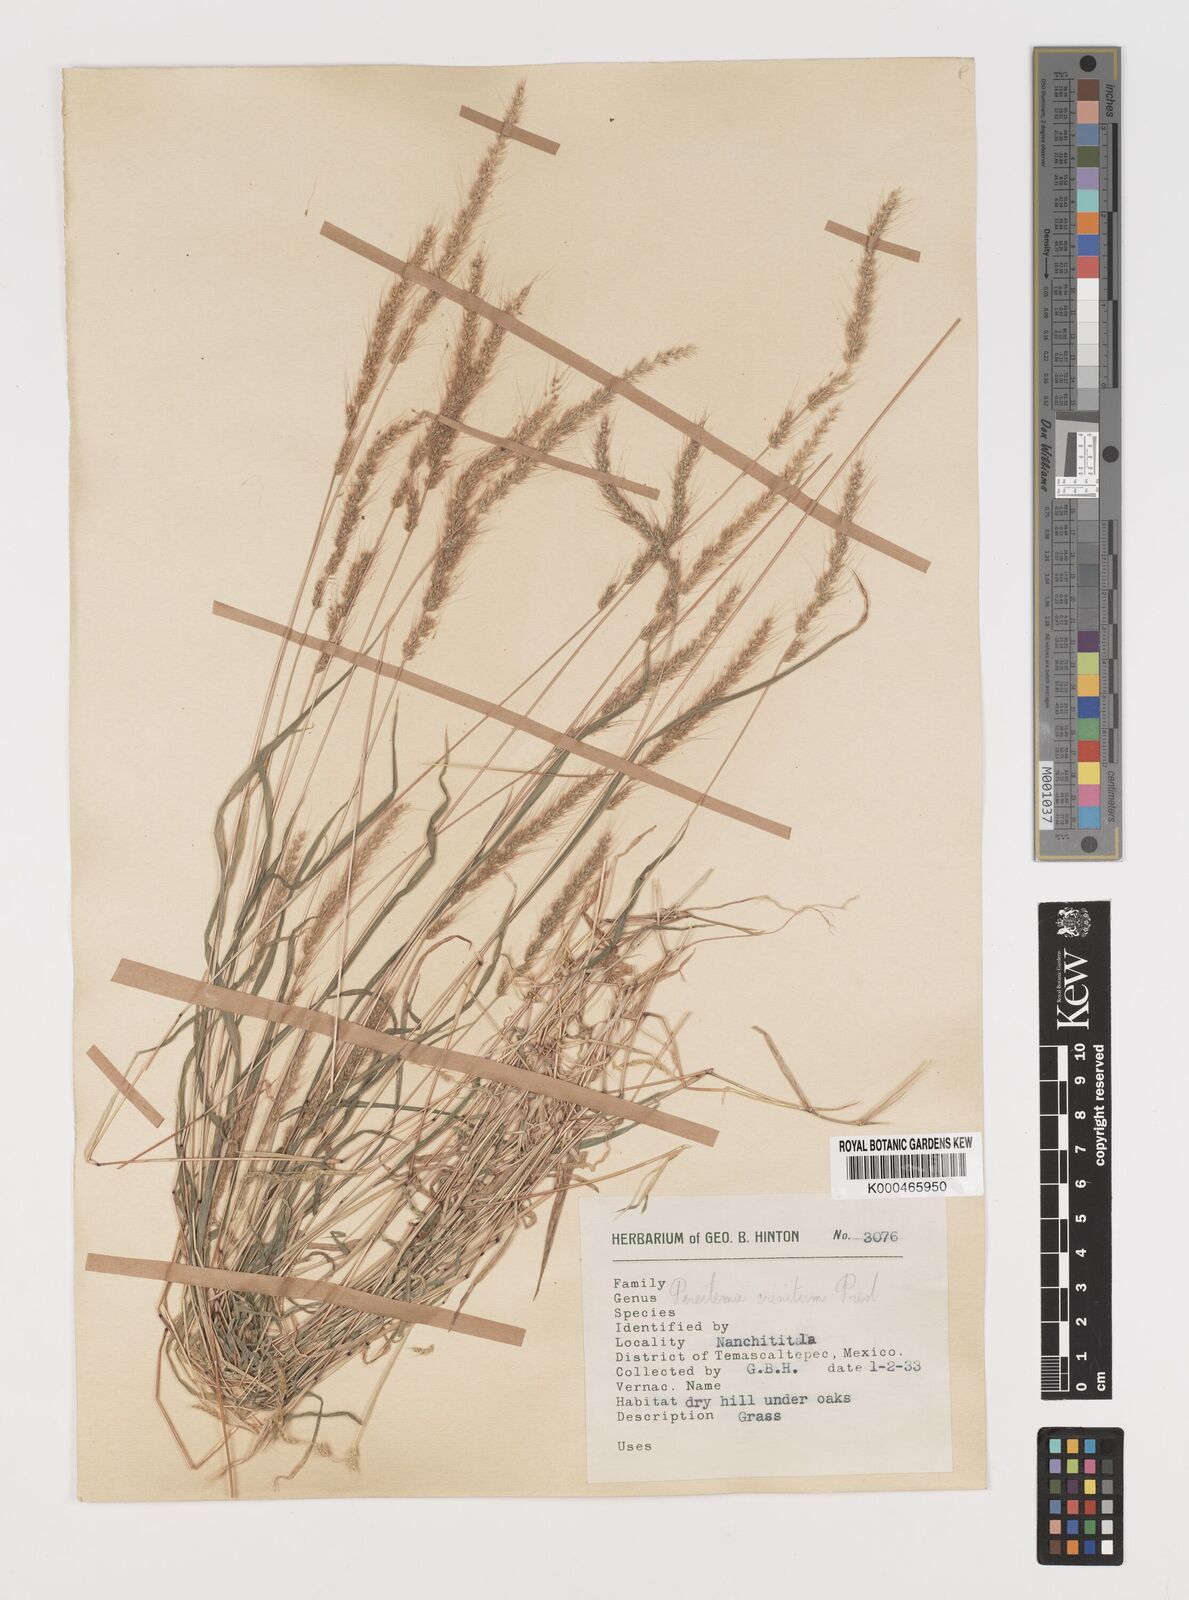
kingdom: Plantae
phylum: Tracheophyta
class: Liliopsida
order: Poales
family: Poaceae
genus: Muhlenbergia
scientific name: Muhlenbergia pereilema
